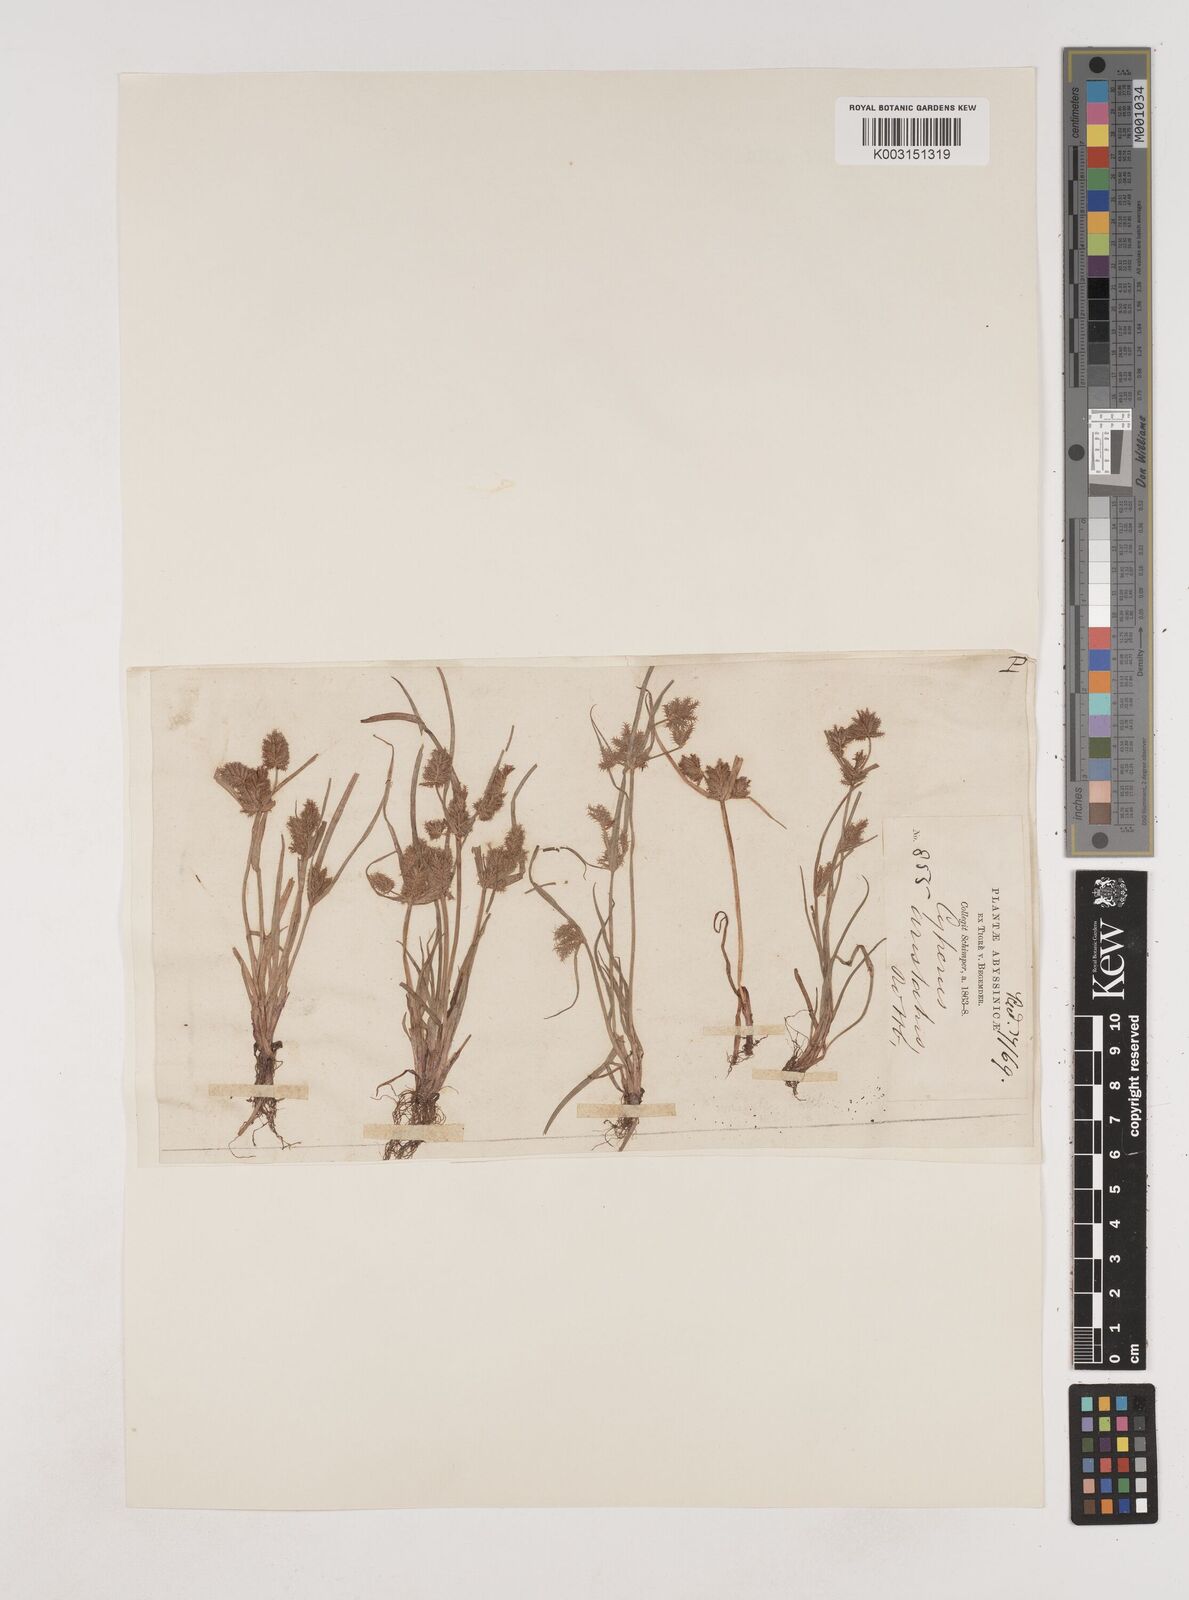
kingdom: Plantae
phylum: Tracheophyta
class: Liliopsida
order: Poales
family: Cyperaceae
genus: Cyperus
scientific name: Cyperus squarrosus
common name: Awned cyperus
